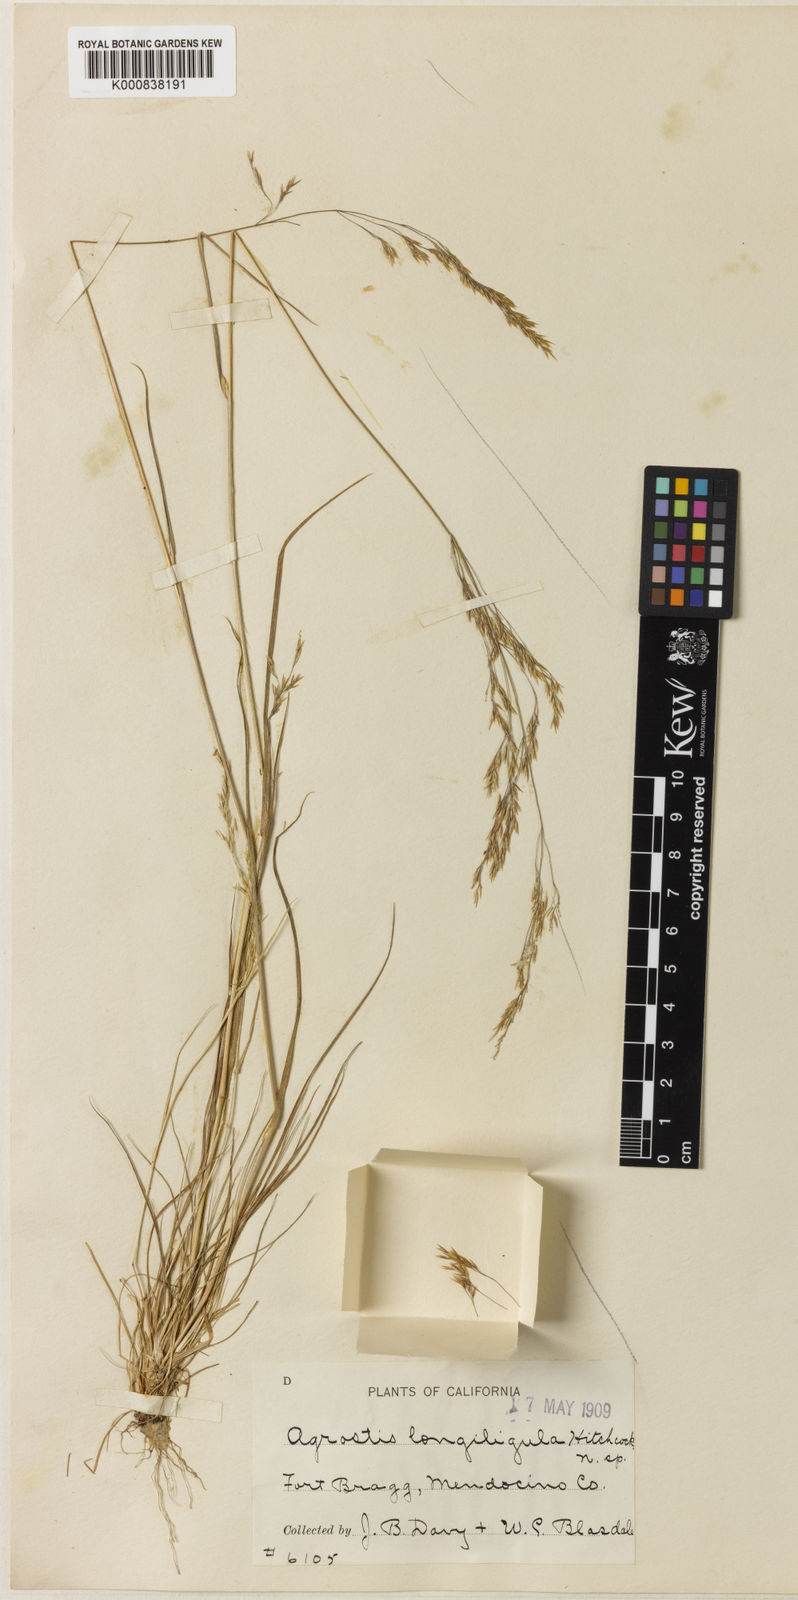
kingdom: Plantae
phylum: Tracheophyta
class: Liliopsida
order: Poales
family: Poaceae
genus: Agrostis
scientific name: Agrostis exarata
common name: Spike bent
